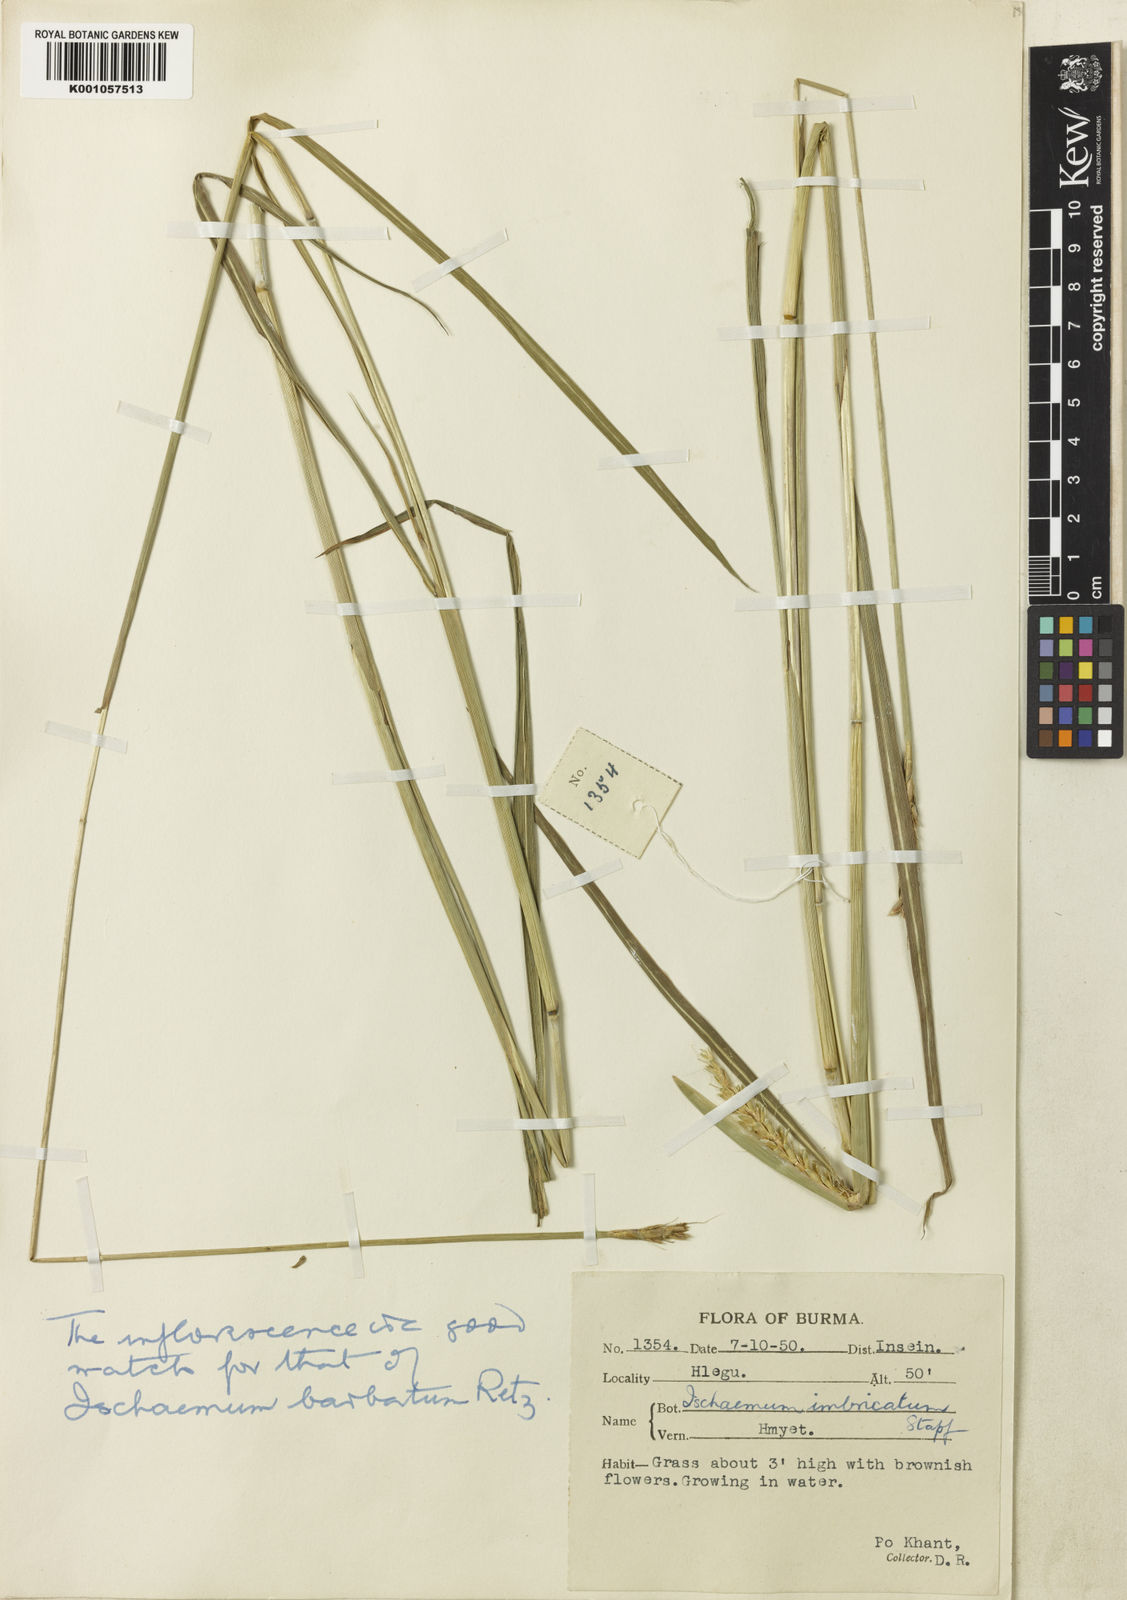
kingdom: Plantae
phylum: Tracheophyta
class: Liliopsida
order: Poales
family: Poaceae
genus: Ischaemum
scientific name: Ischaemum barbatum
